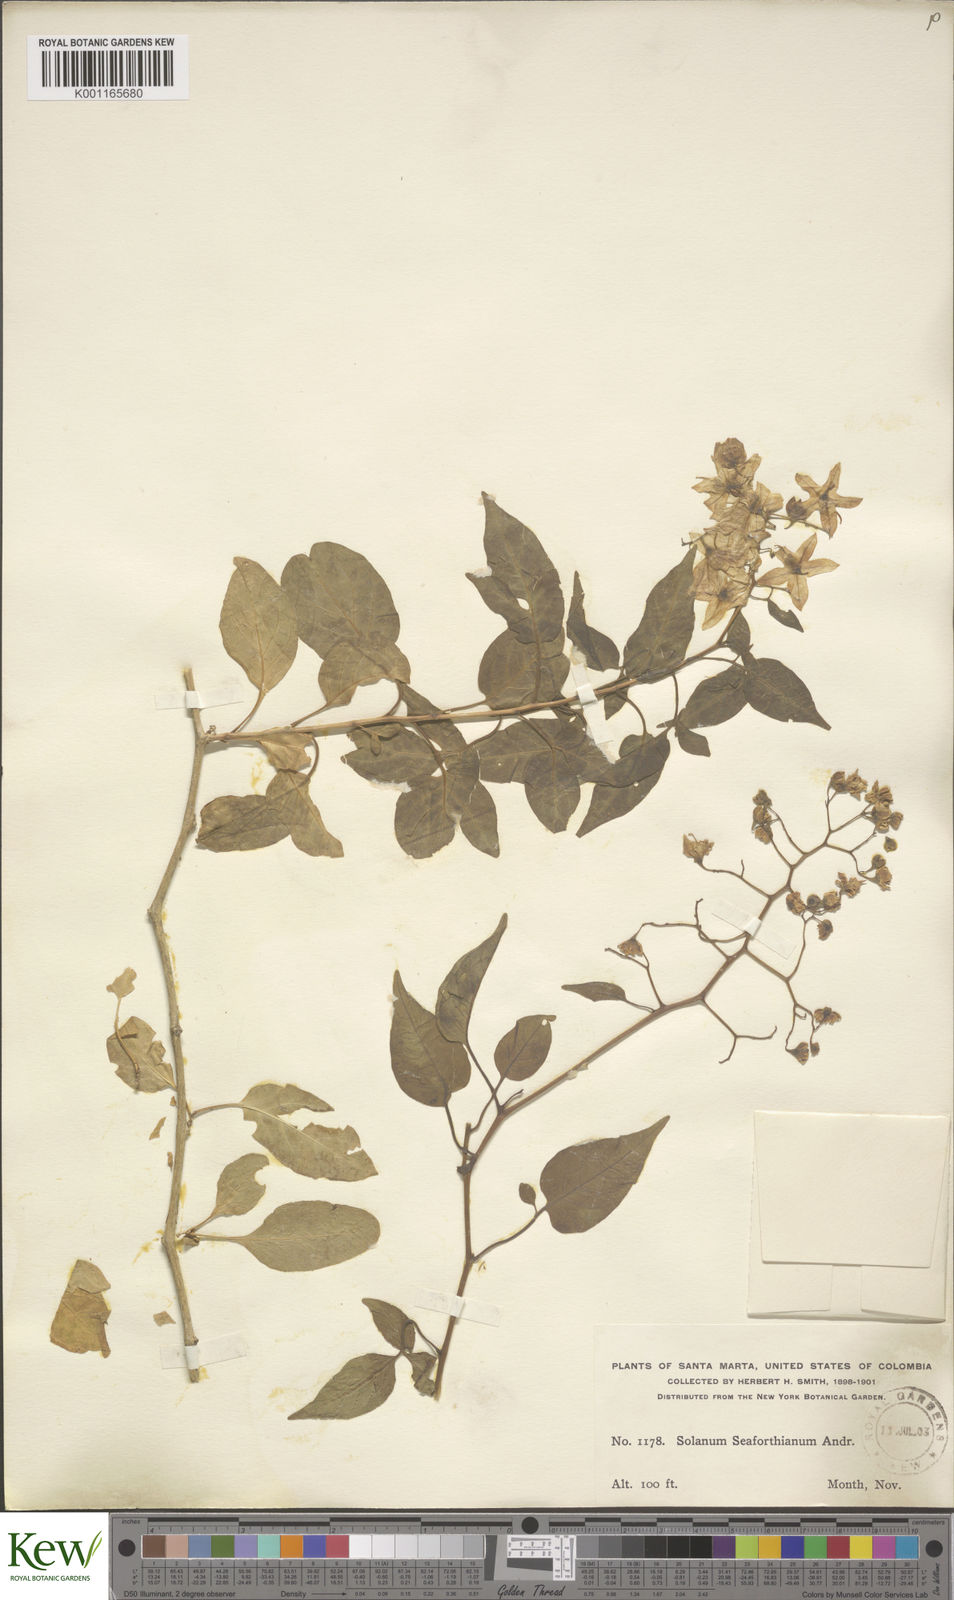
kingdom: Plantae
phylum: Tracheophyta
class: Magnoliopsida
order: Solanales
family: Solanaceae
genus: Solanum
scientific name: Solanum seaforthianum
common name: Brazilian nightshade
